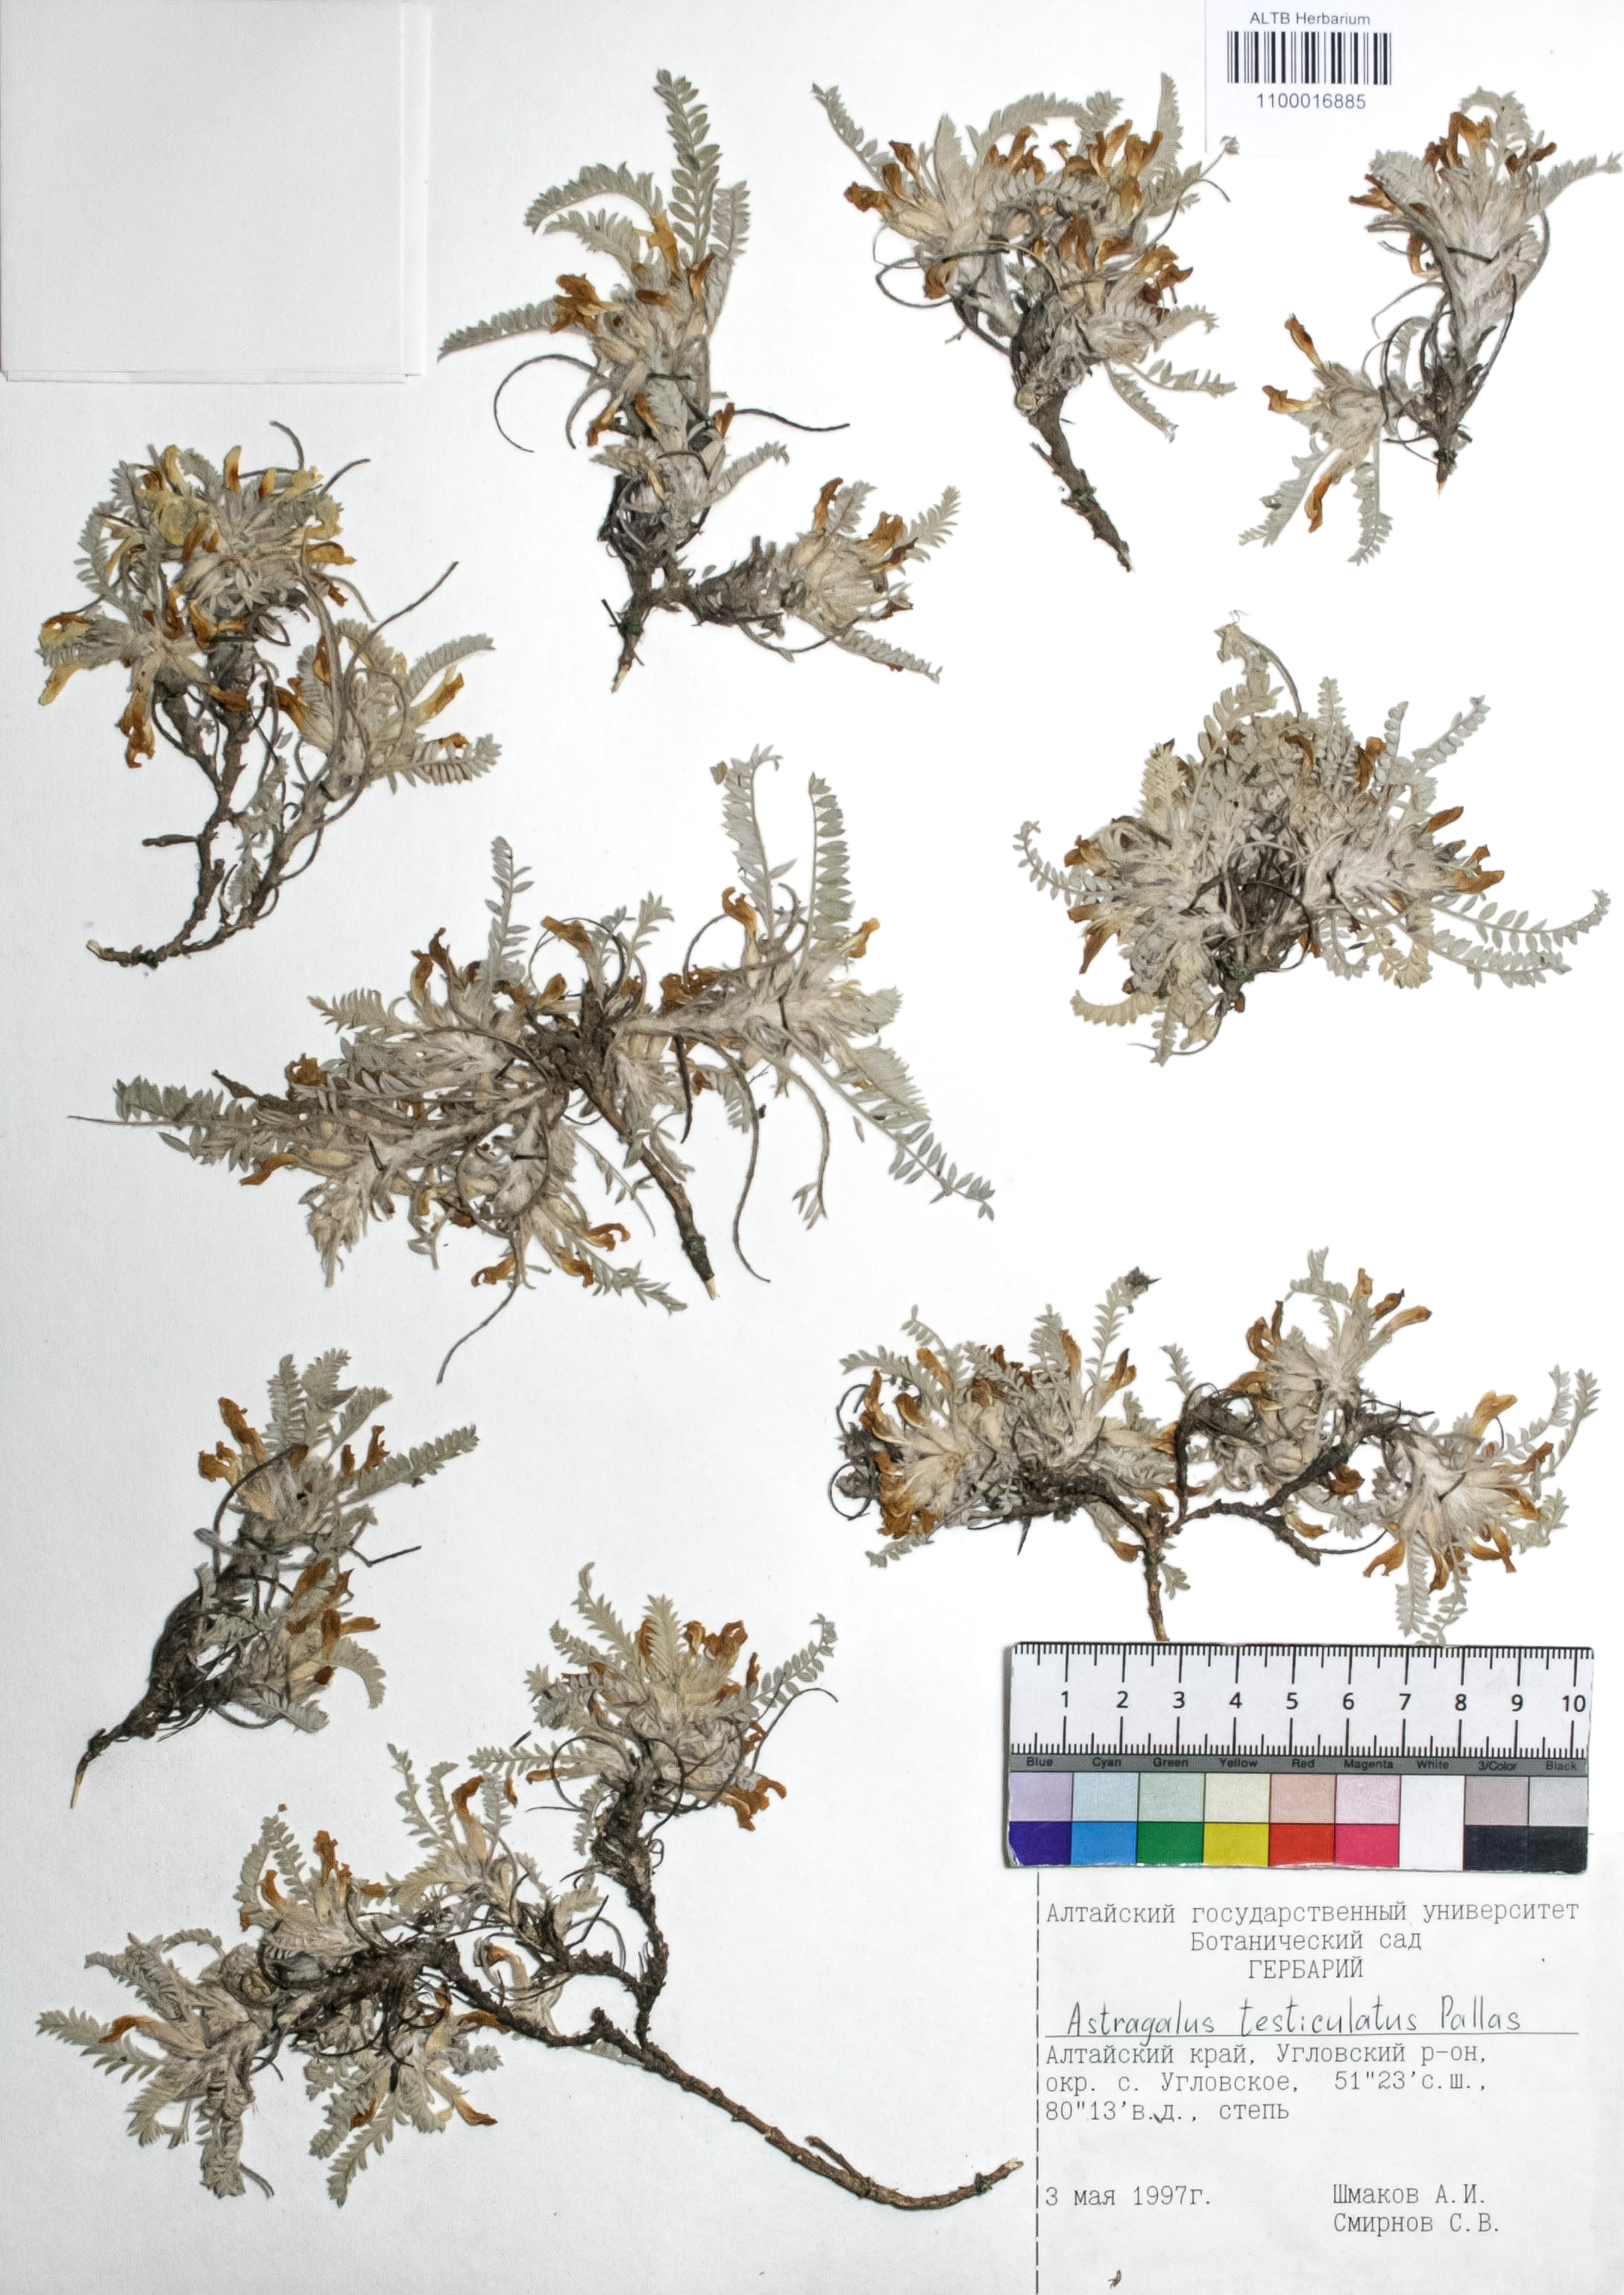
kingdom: Plantae
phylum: Tracheophyta
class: Magnoliopsida
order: Fabales
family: Fabaceae
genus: Astragalus
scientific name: Astragalus testiculatus
